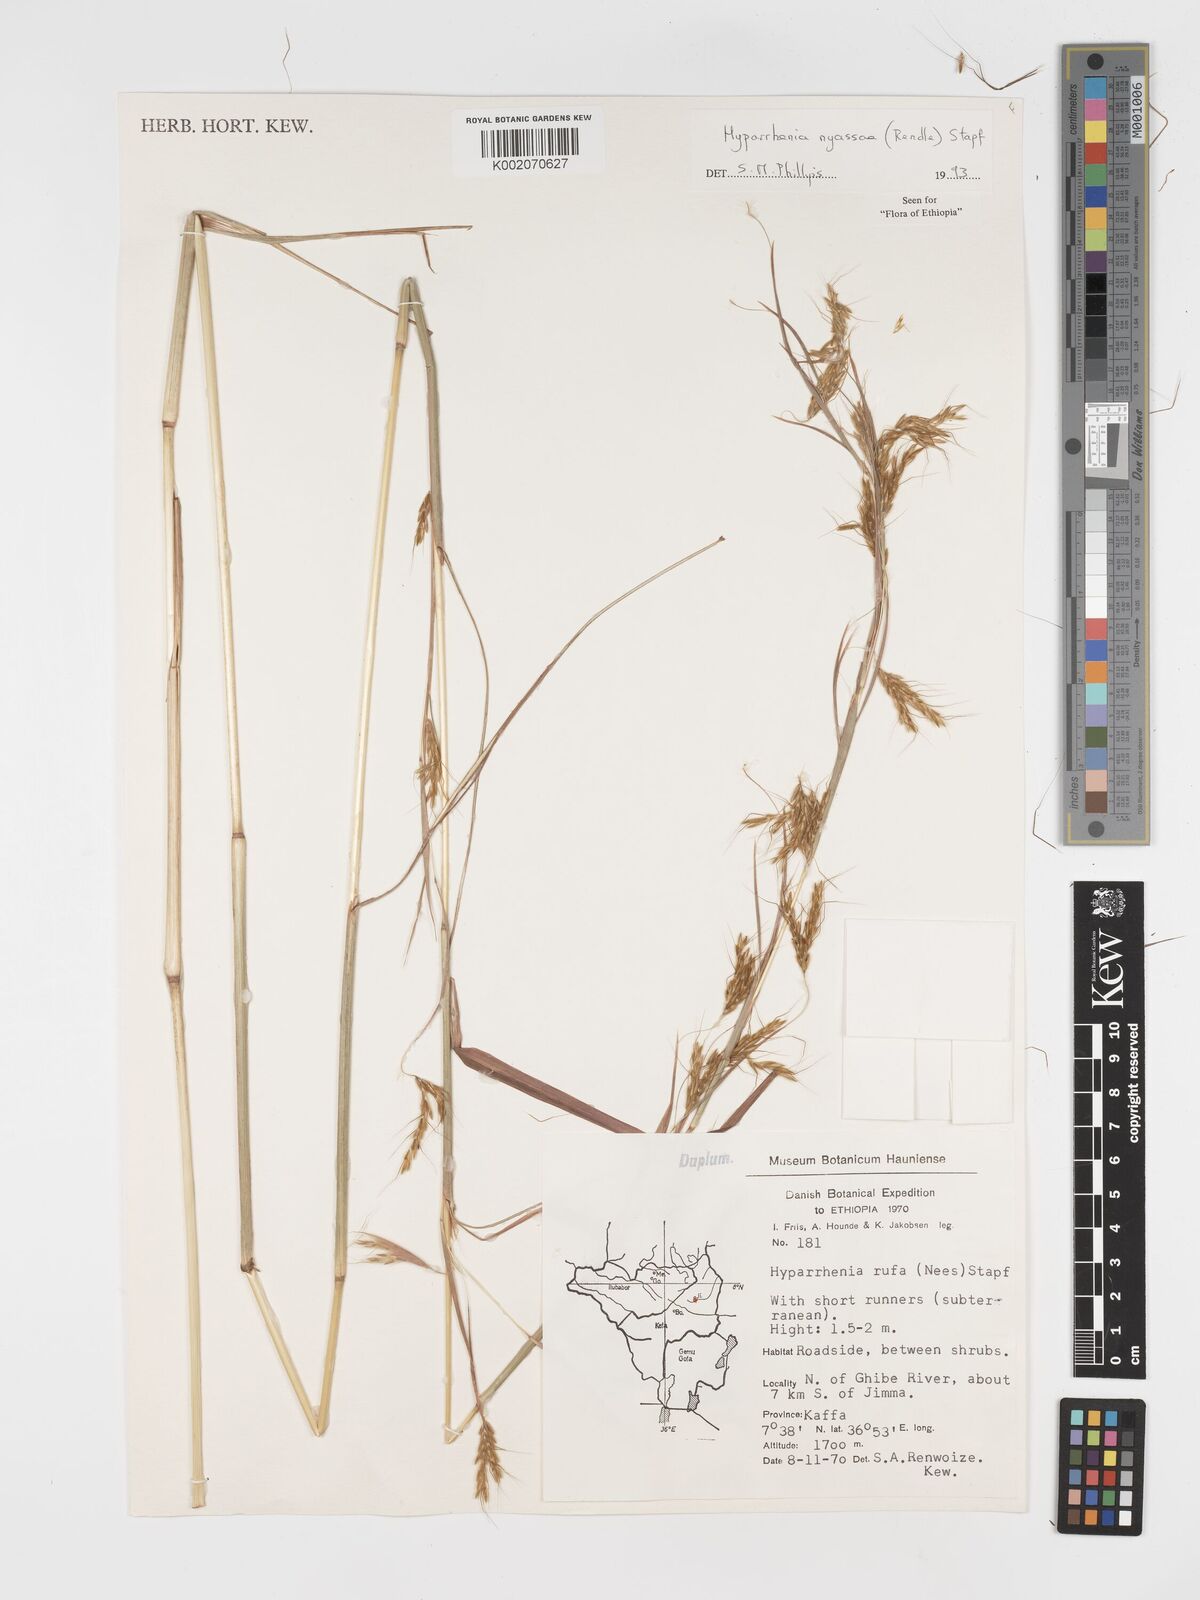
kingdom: Plantae
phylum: Tracheophyta
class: Liliopsida
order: Poales
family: Poaceae
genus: Hyparrhenia
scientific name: Hyparrhenia nyassae
